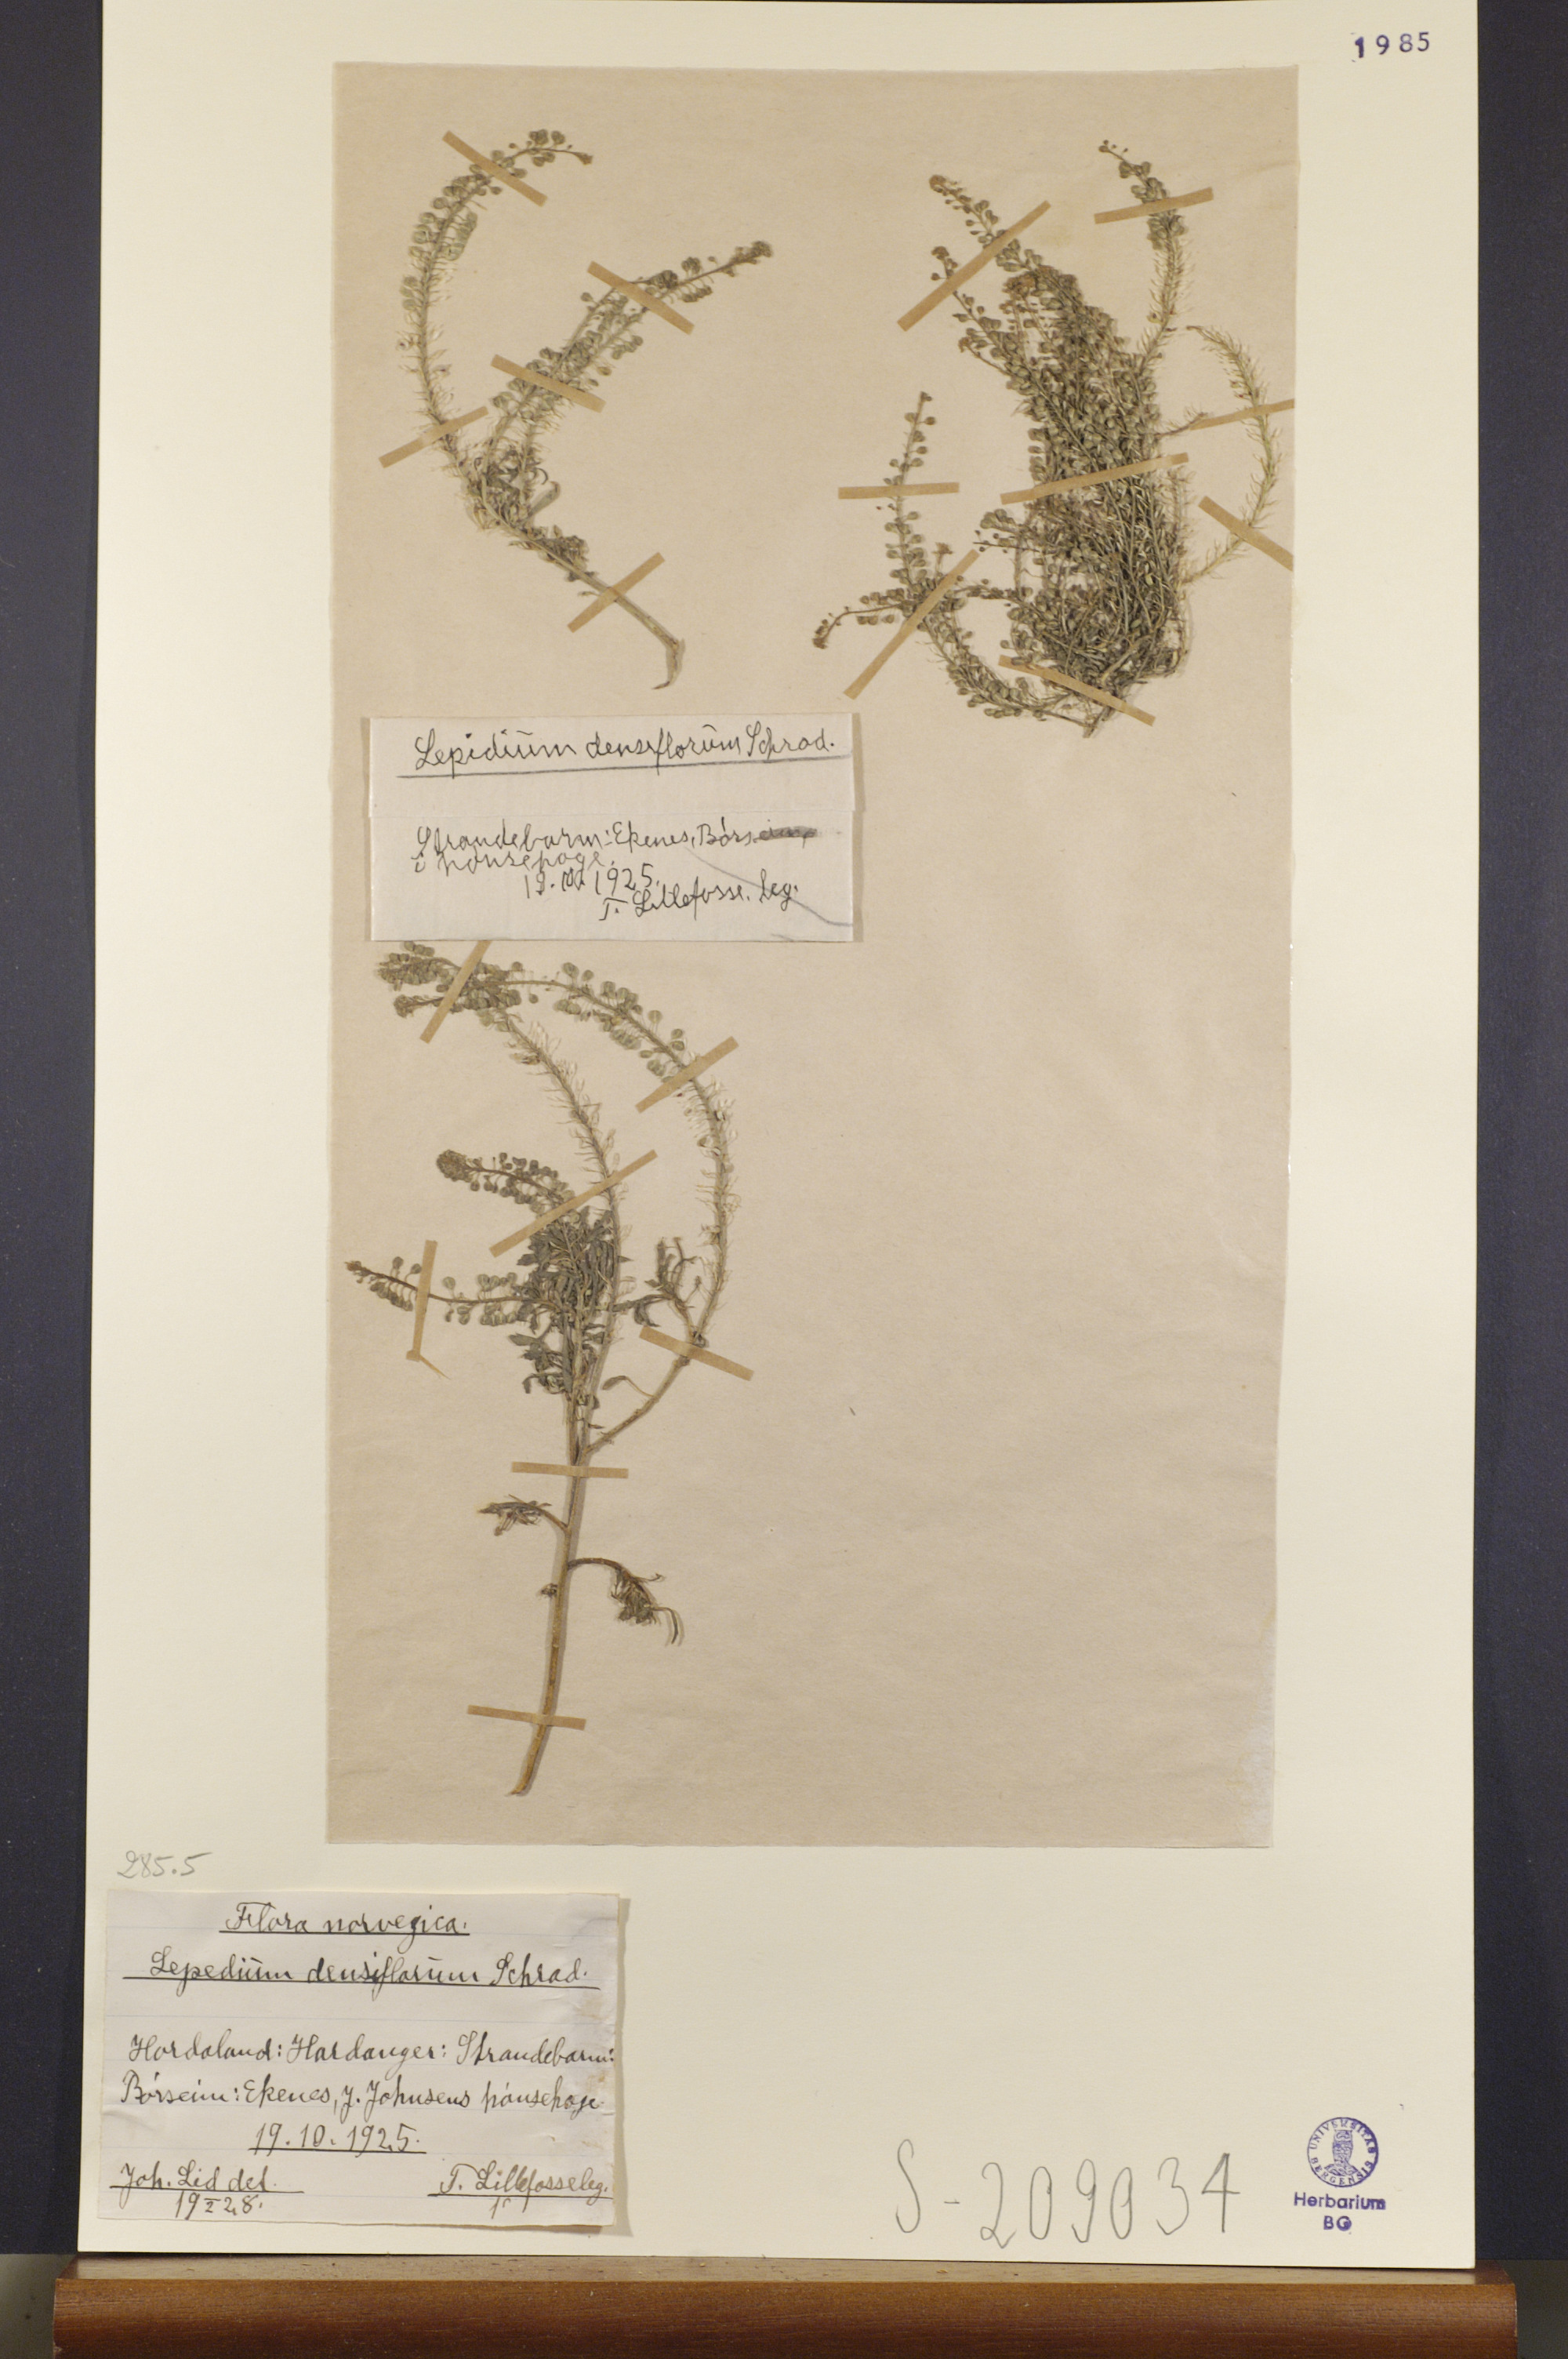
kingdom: Plantae
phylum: Tracheophyta
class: Magnoliopsida
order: Brassicales
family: Brassicaceae
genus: Lepidium
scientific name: Lepidium densiflorum
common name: Miner's pepperwort
